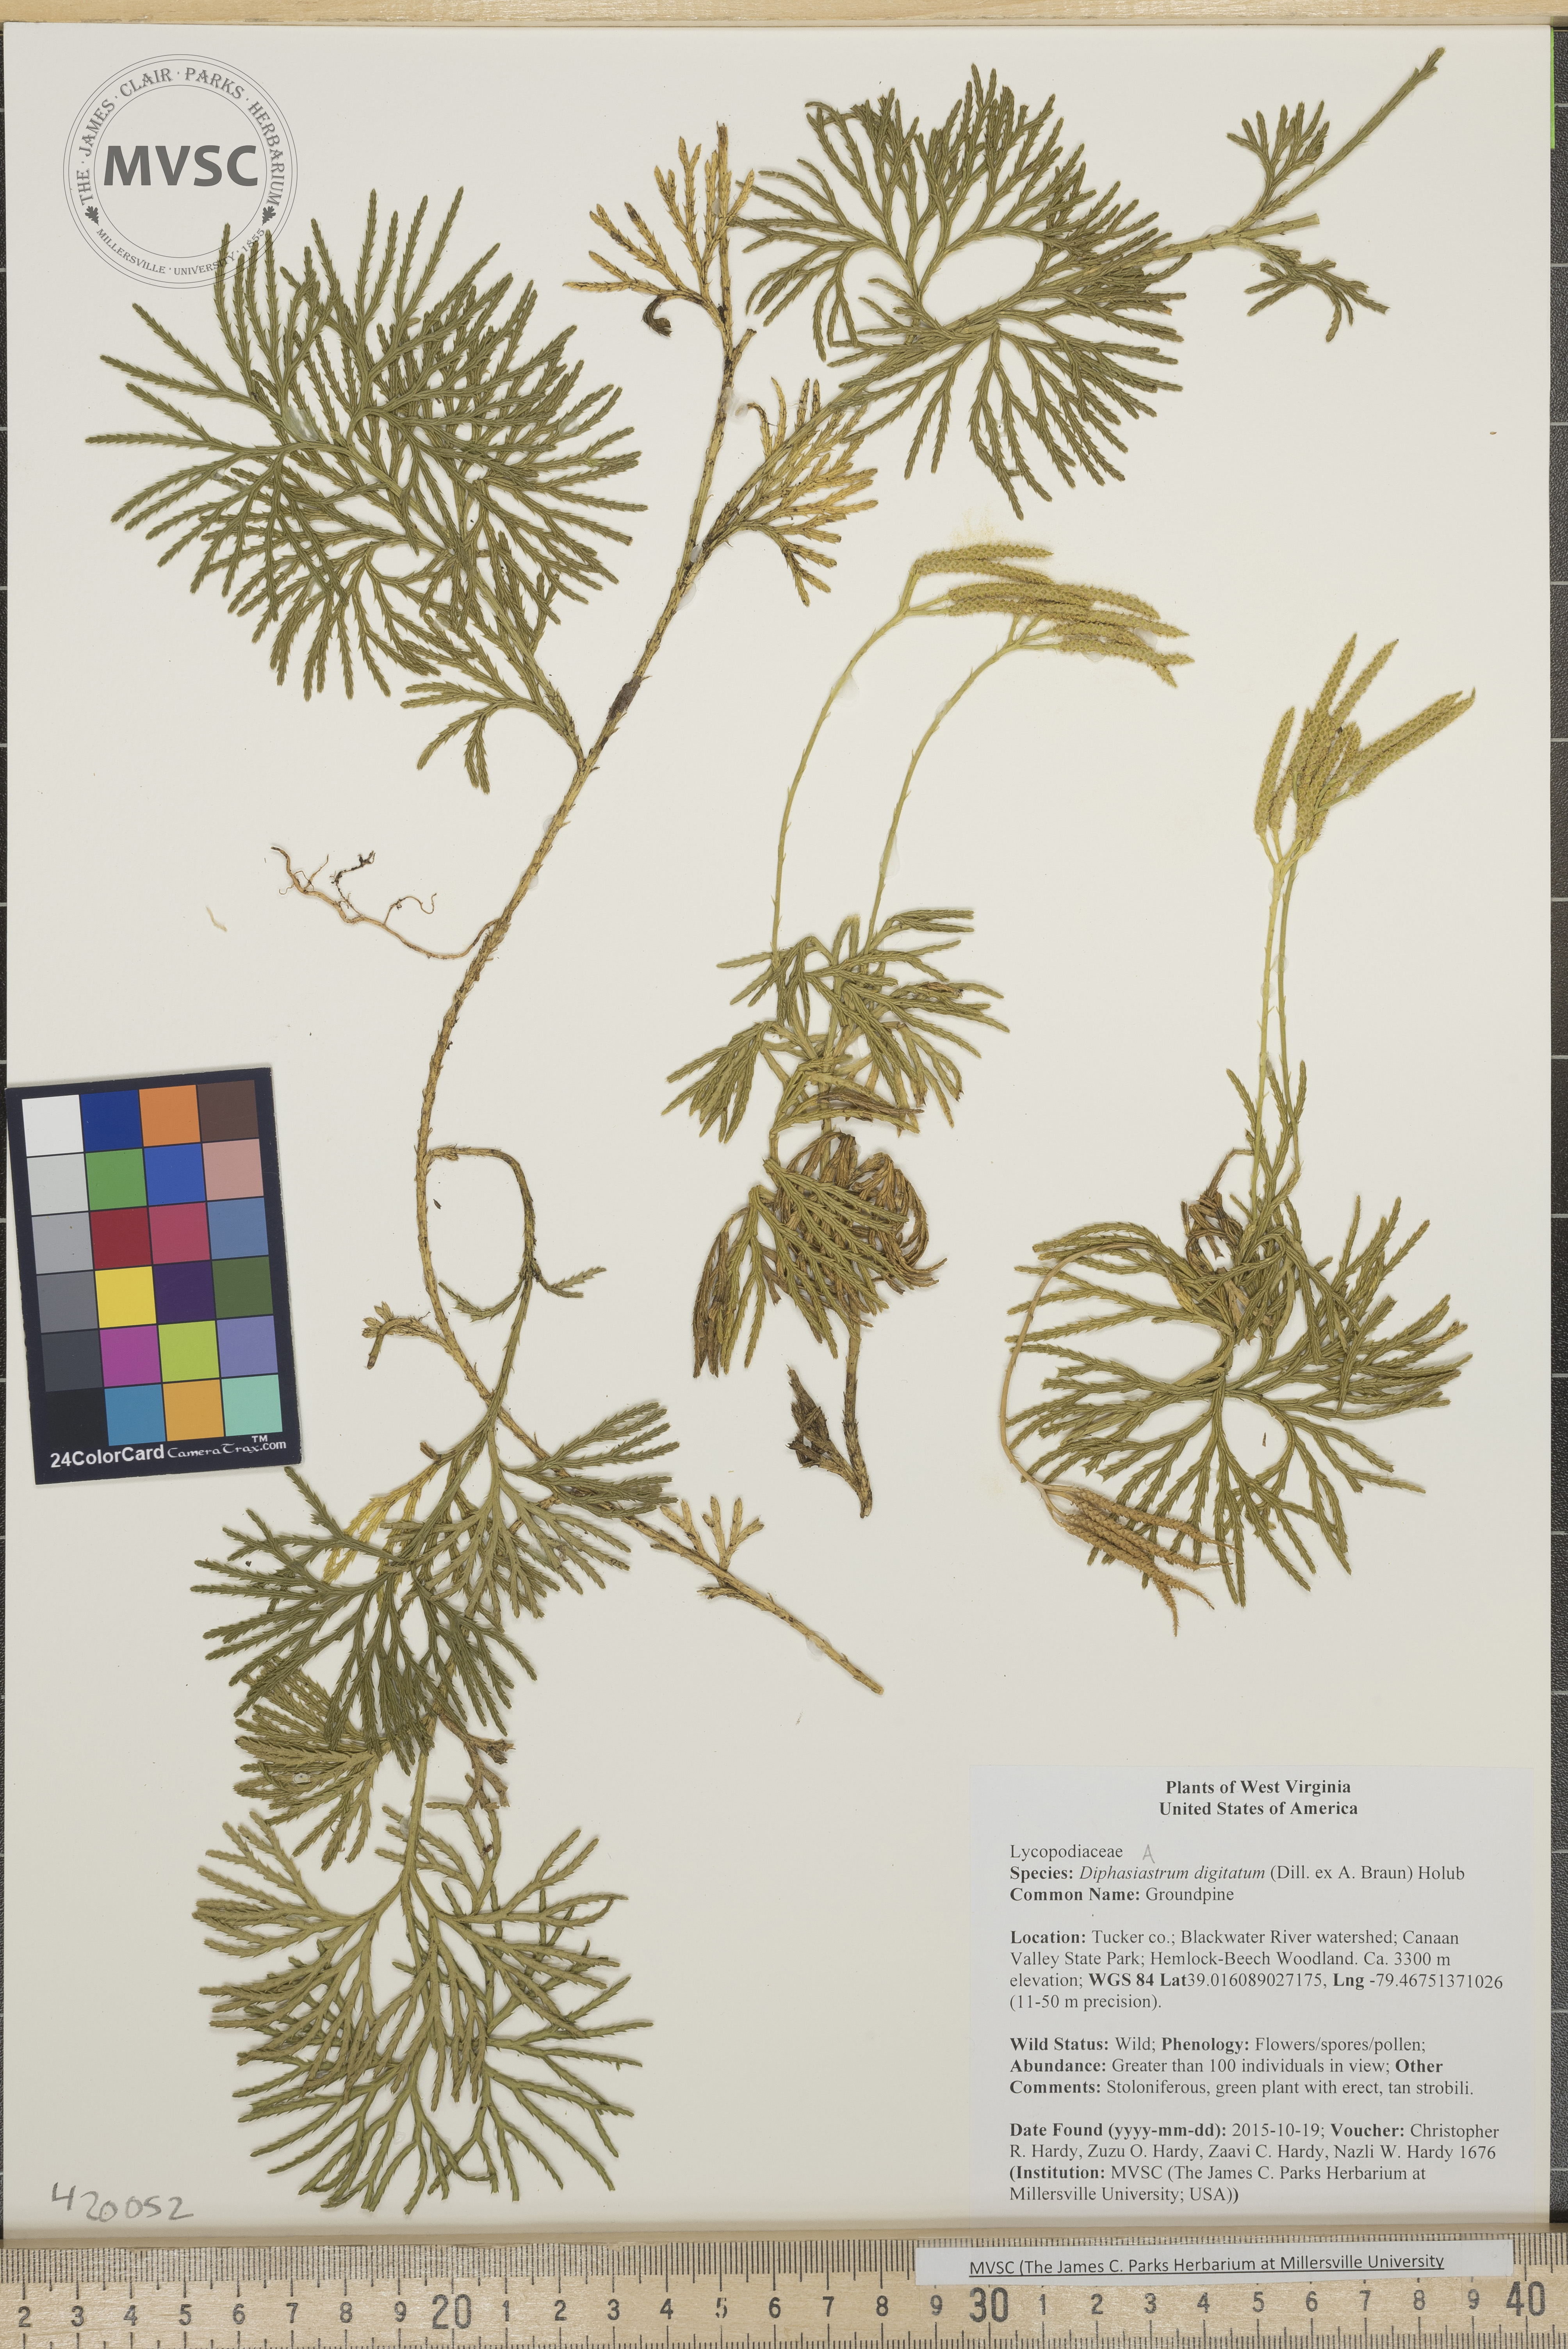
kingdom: Plantae
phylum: Tracheophyta
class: Lycopodiopsida
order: Lycopodiales
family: Lycopodiaceae
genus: Diphasiastrum
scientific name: Diphasiastrum digitatum
